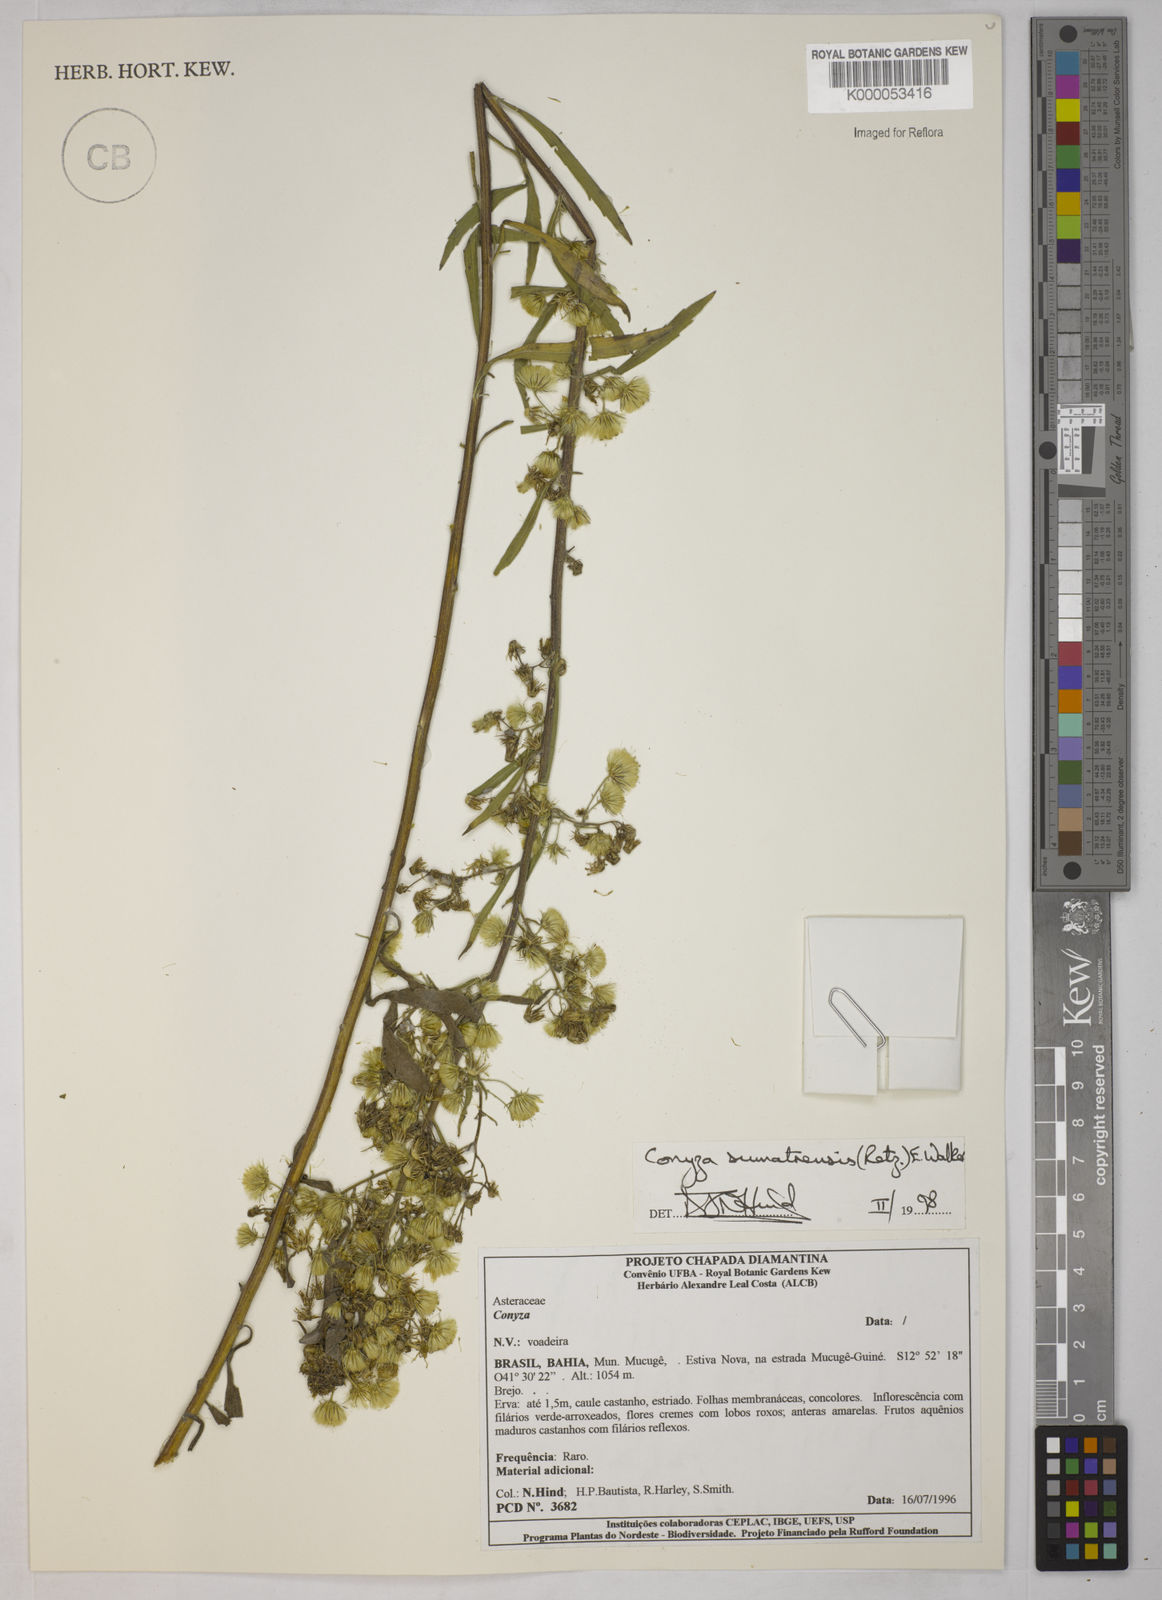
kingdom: Plantae
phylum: Tracheophyta
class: Magnoliopsida
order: Asterales
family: Asteraceae
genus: Erigeron
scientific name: Erigeron sumatrensis
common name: Daisy
